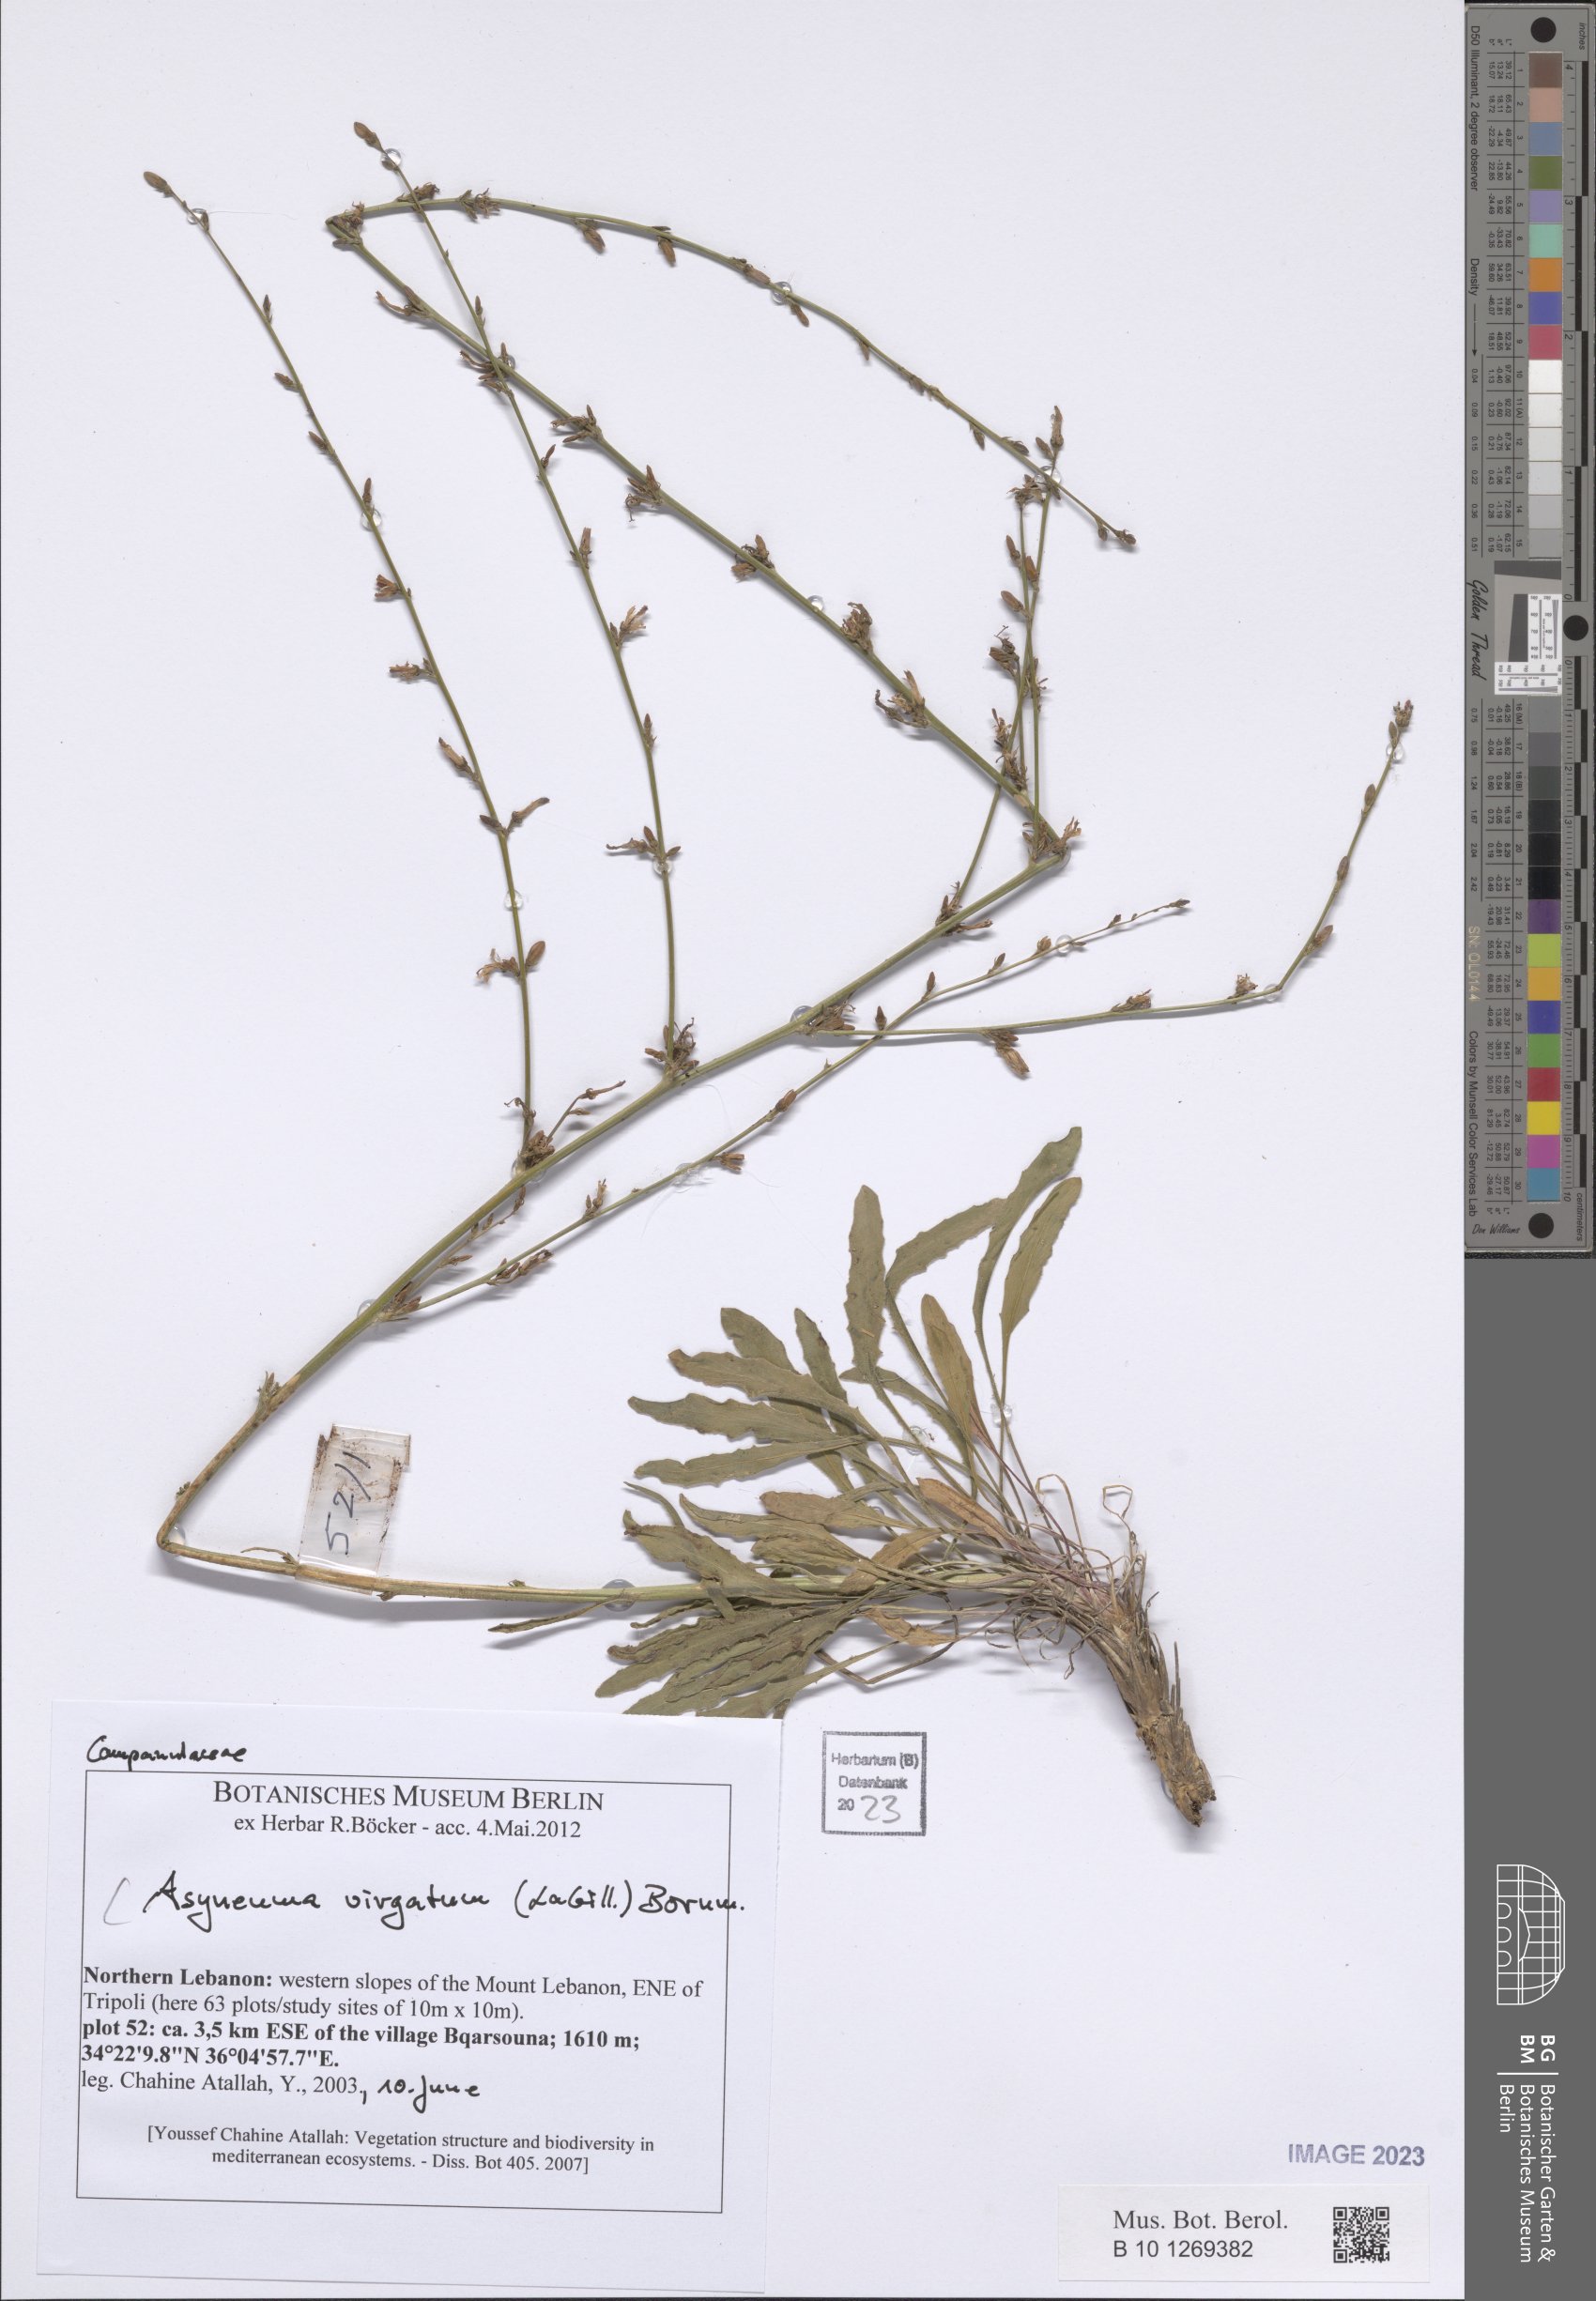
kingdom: Plantae
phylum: Tracheophyta
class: Magnoliopsida
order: Asterales
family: Campanulaceae
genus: Asyneuma
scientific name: Asyneuma virgatum
